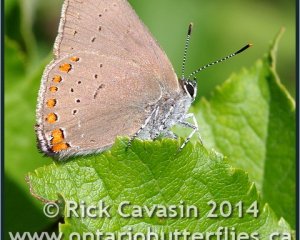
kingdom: Animalia
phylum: Arthropoda
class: Insecta
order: Lepidoptera
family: Lycaenidae
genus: Harkenclenus
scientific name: Harkenclenus titus
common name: Coral Hairstreak
